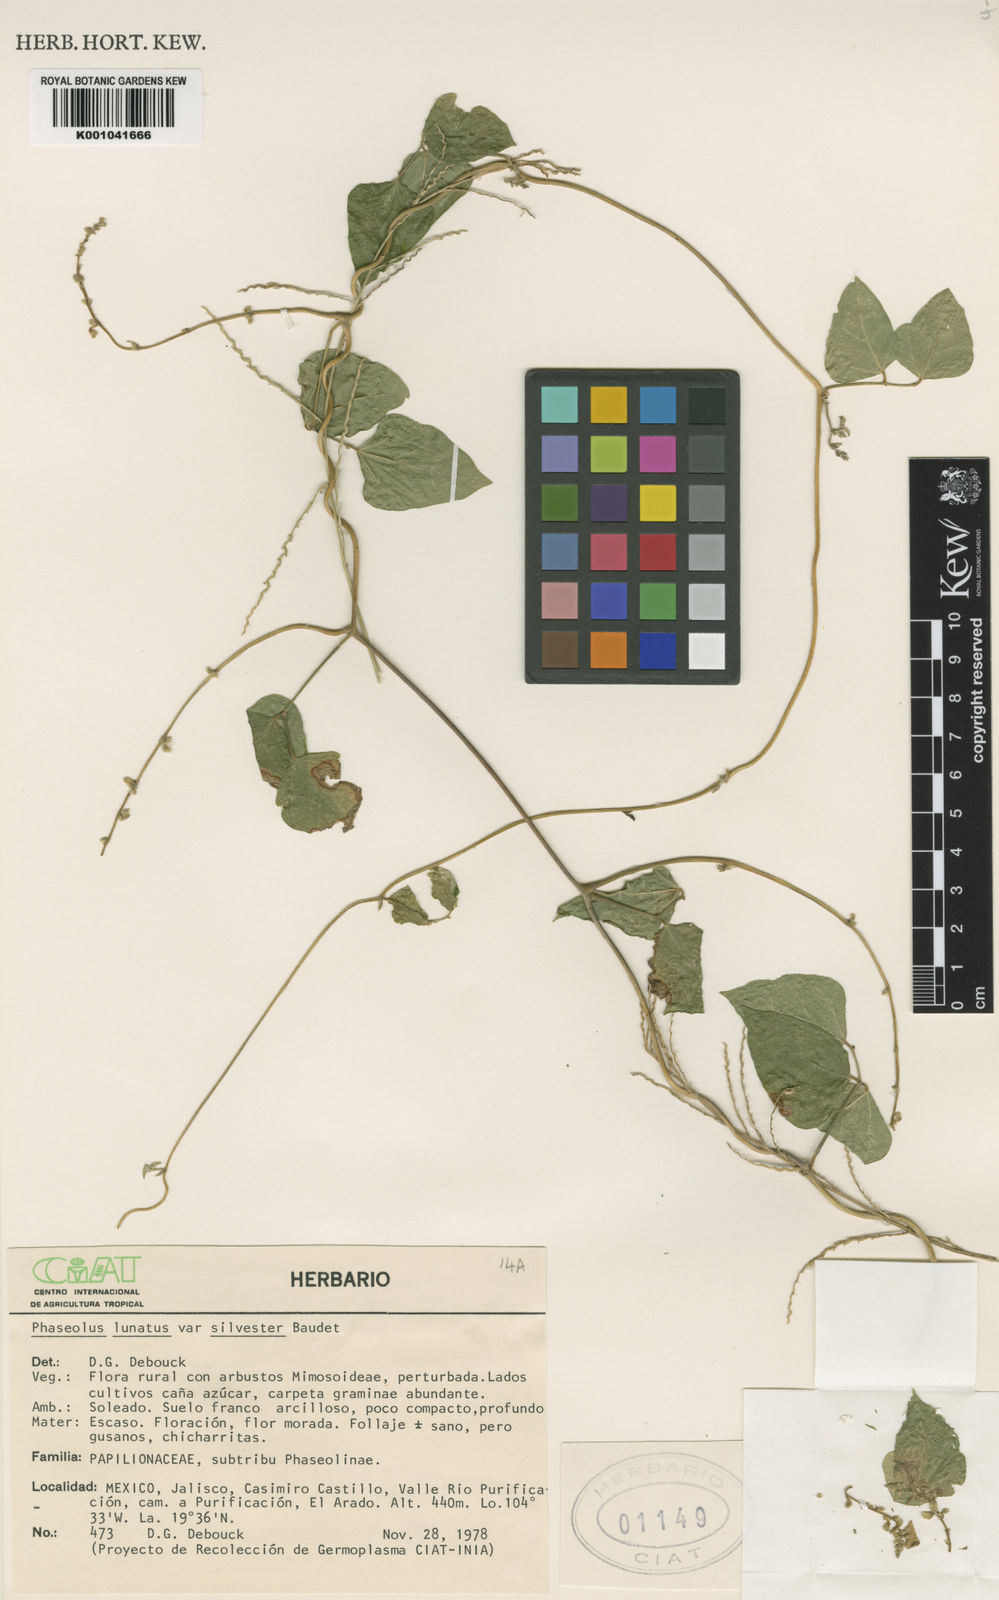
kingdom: Plantae
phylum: Tracheophyta
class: Magnoliopsida
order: Fabales
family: Fabaceae
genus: Phaseolus
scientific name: Phaseolus lunatus
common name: Sieva bean
